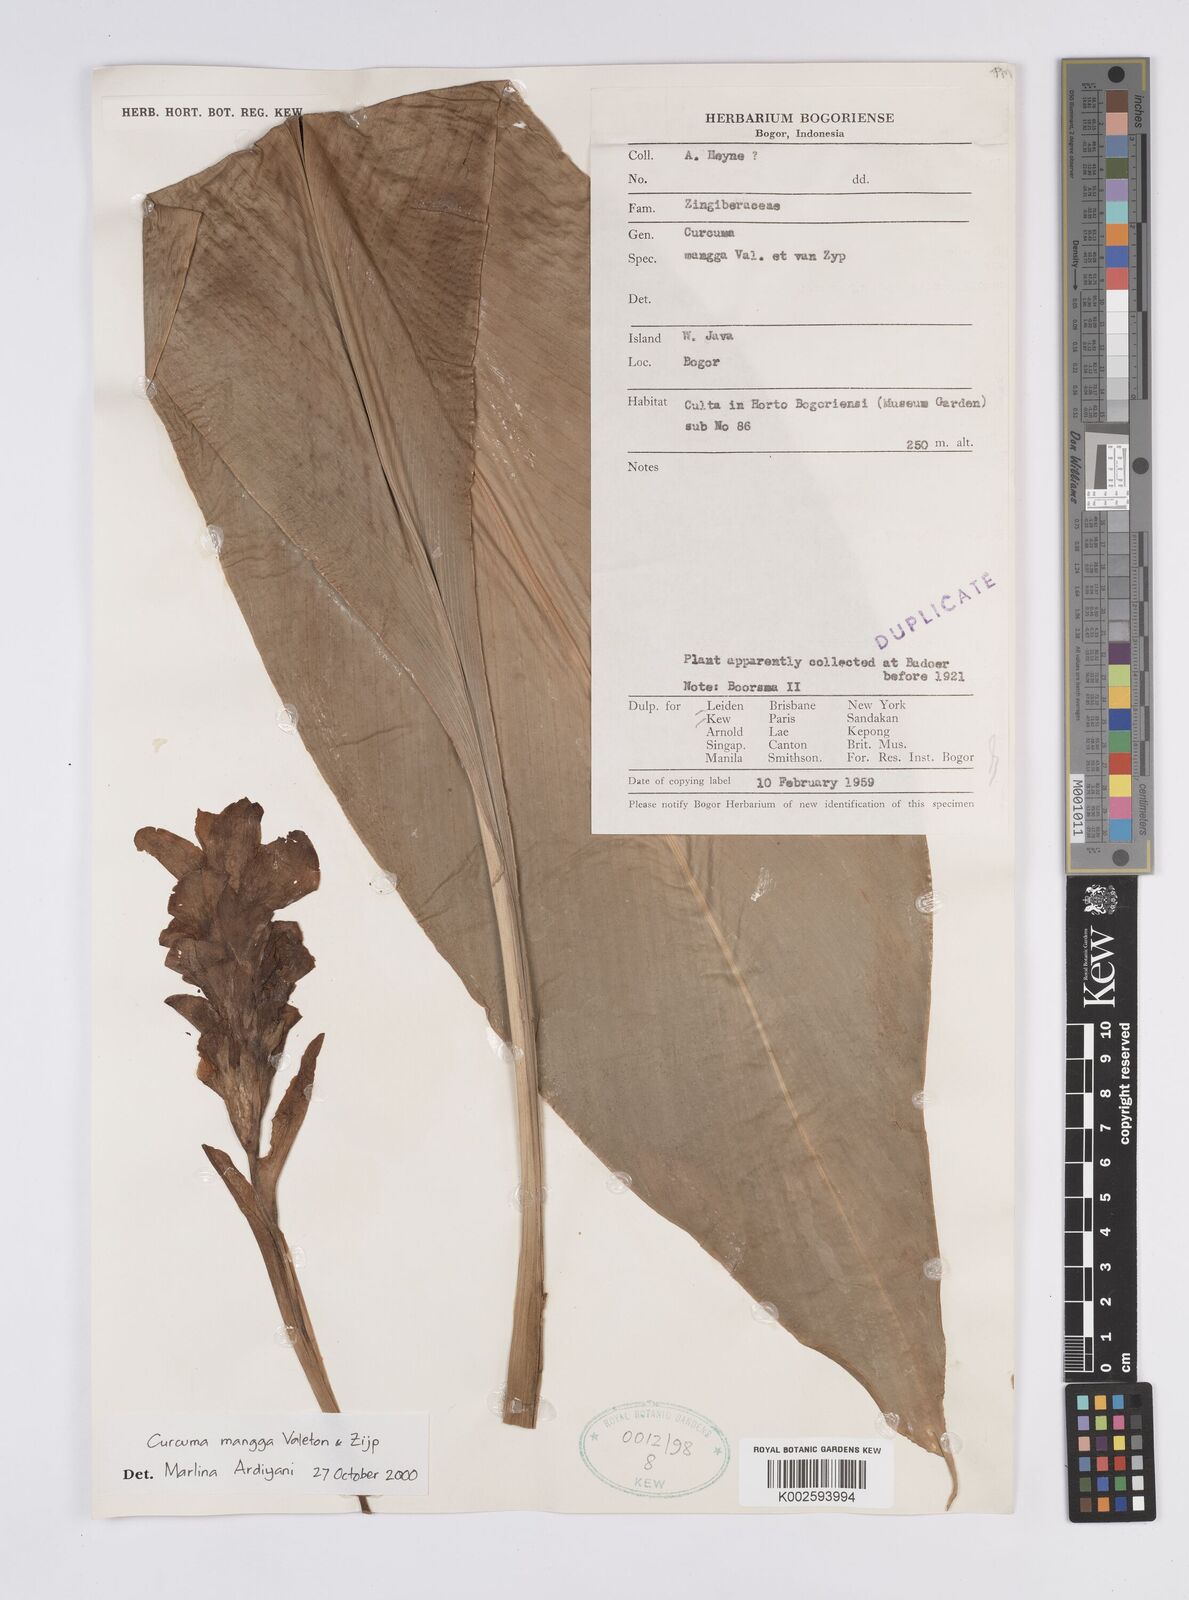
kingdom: Plantae
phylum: Tracheophyta
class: Liliopsida
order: Zingiberales
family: Zingiberaceae
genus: Curcuma
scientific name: Curcuma mangga
